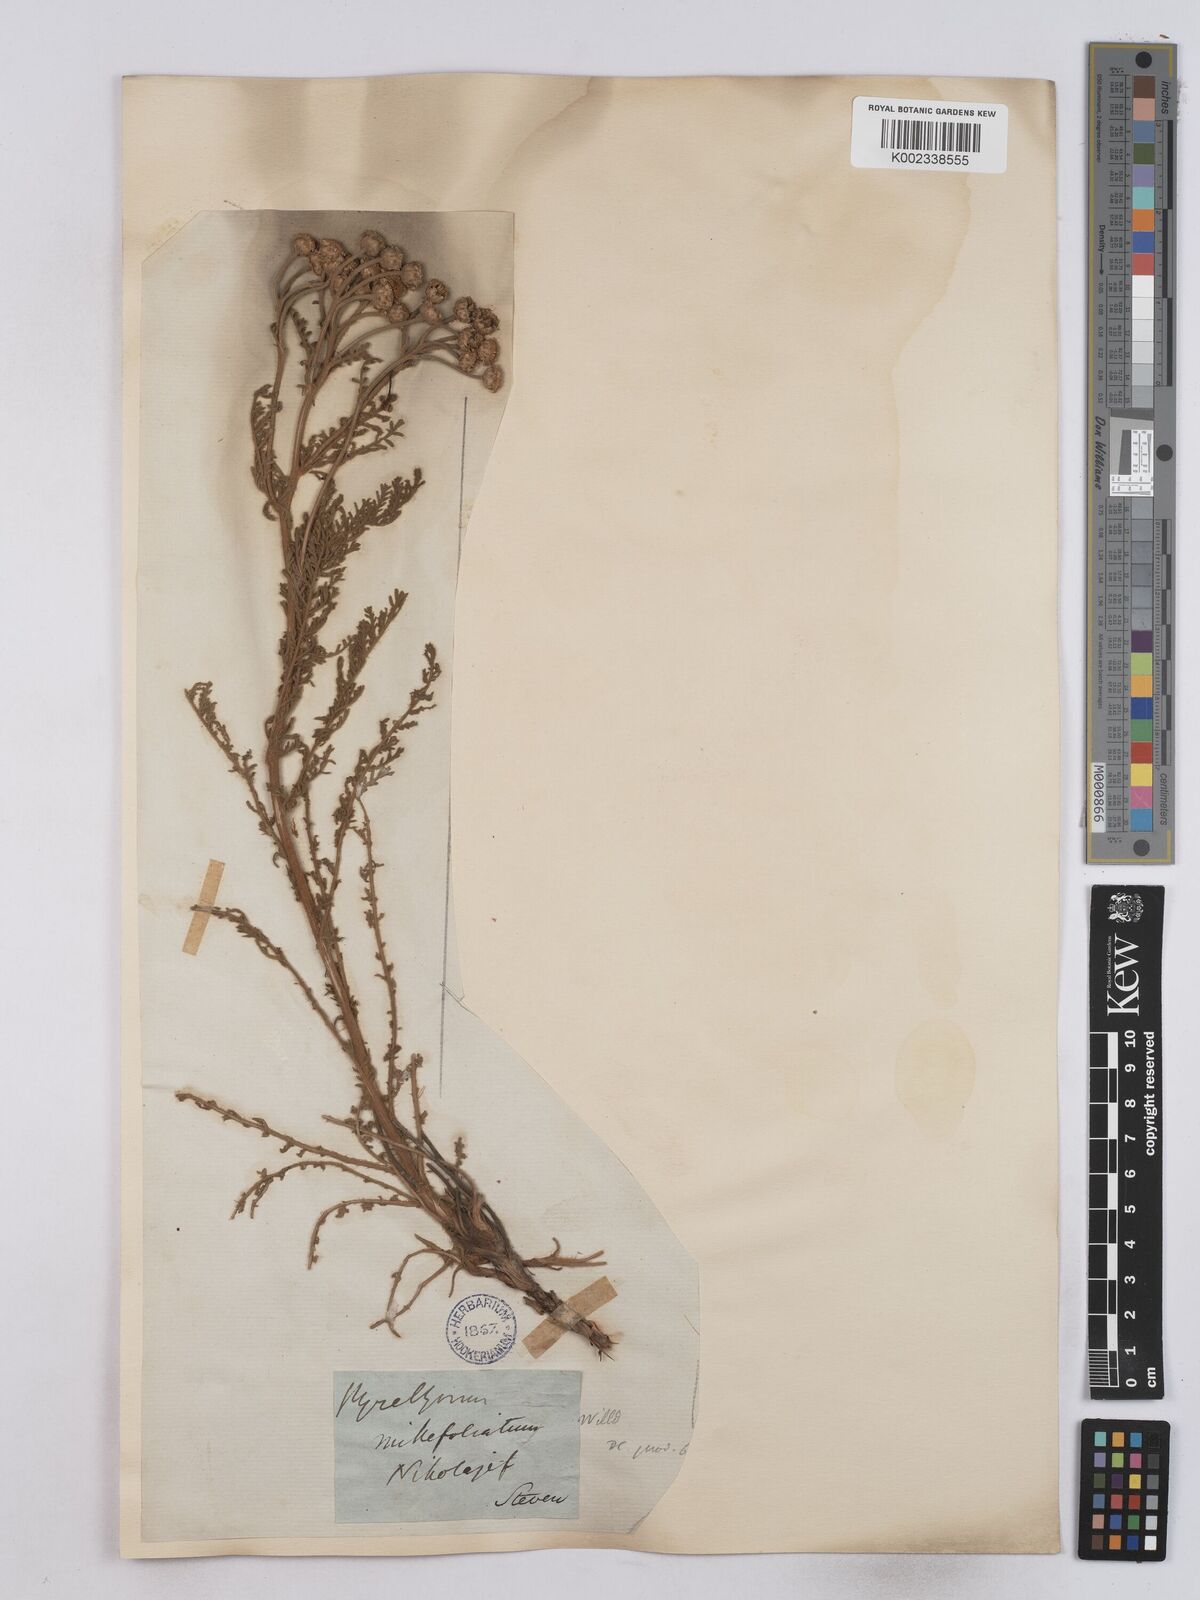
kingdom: Plantae
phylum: Tracheophyta
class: Magnoliopsida
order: Asterales
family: Asteraceae
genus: Tanacetum
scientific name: Tanacetum millefolium
